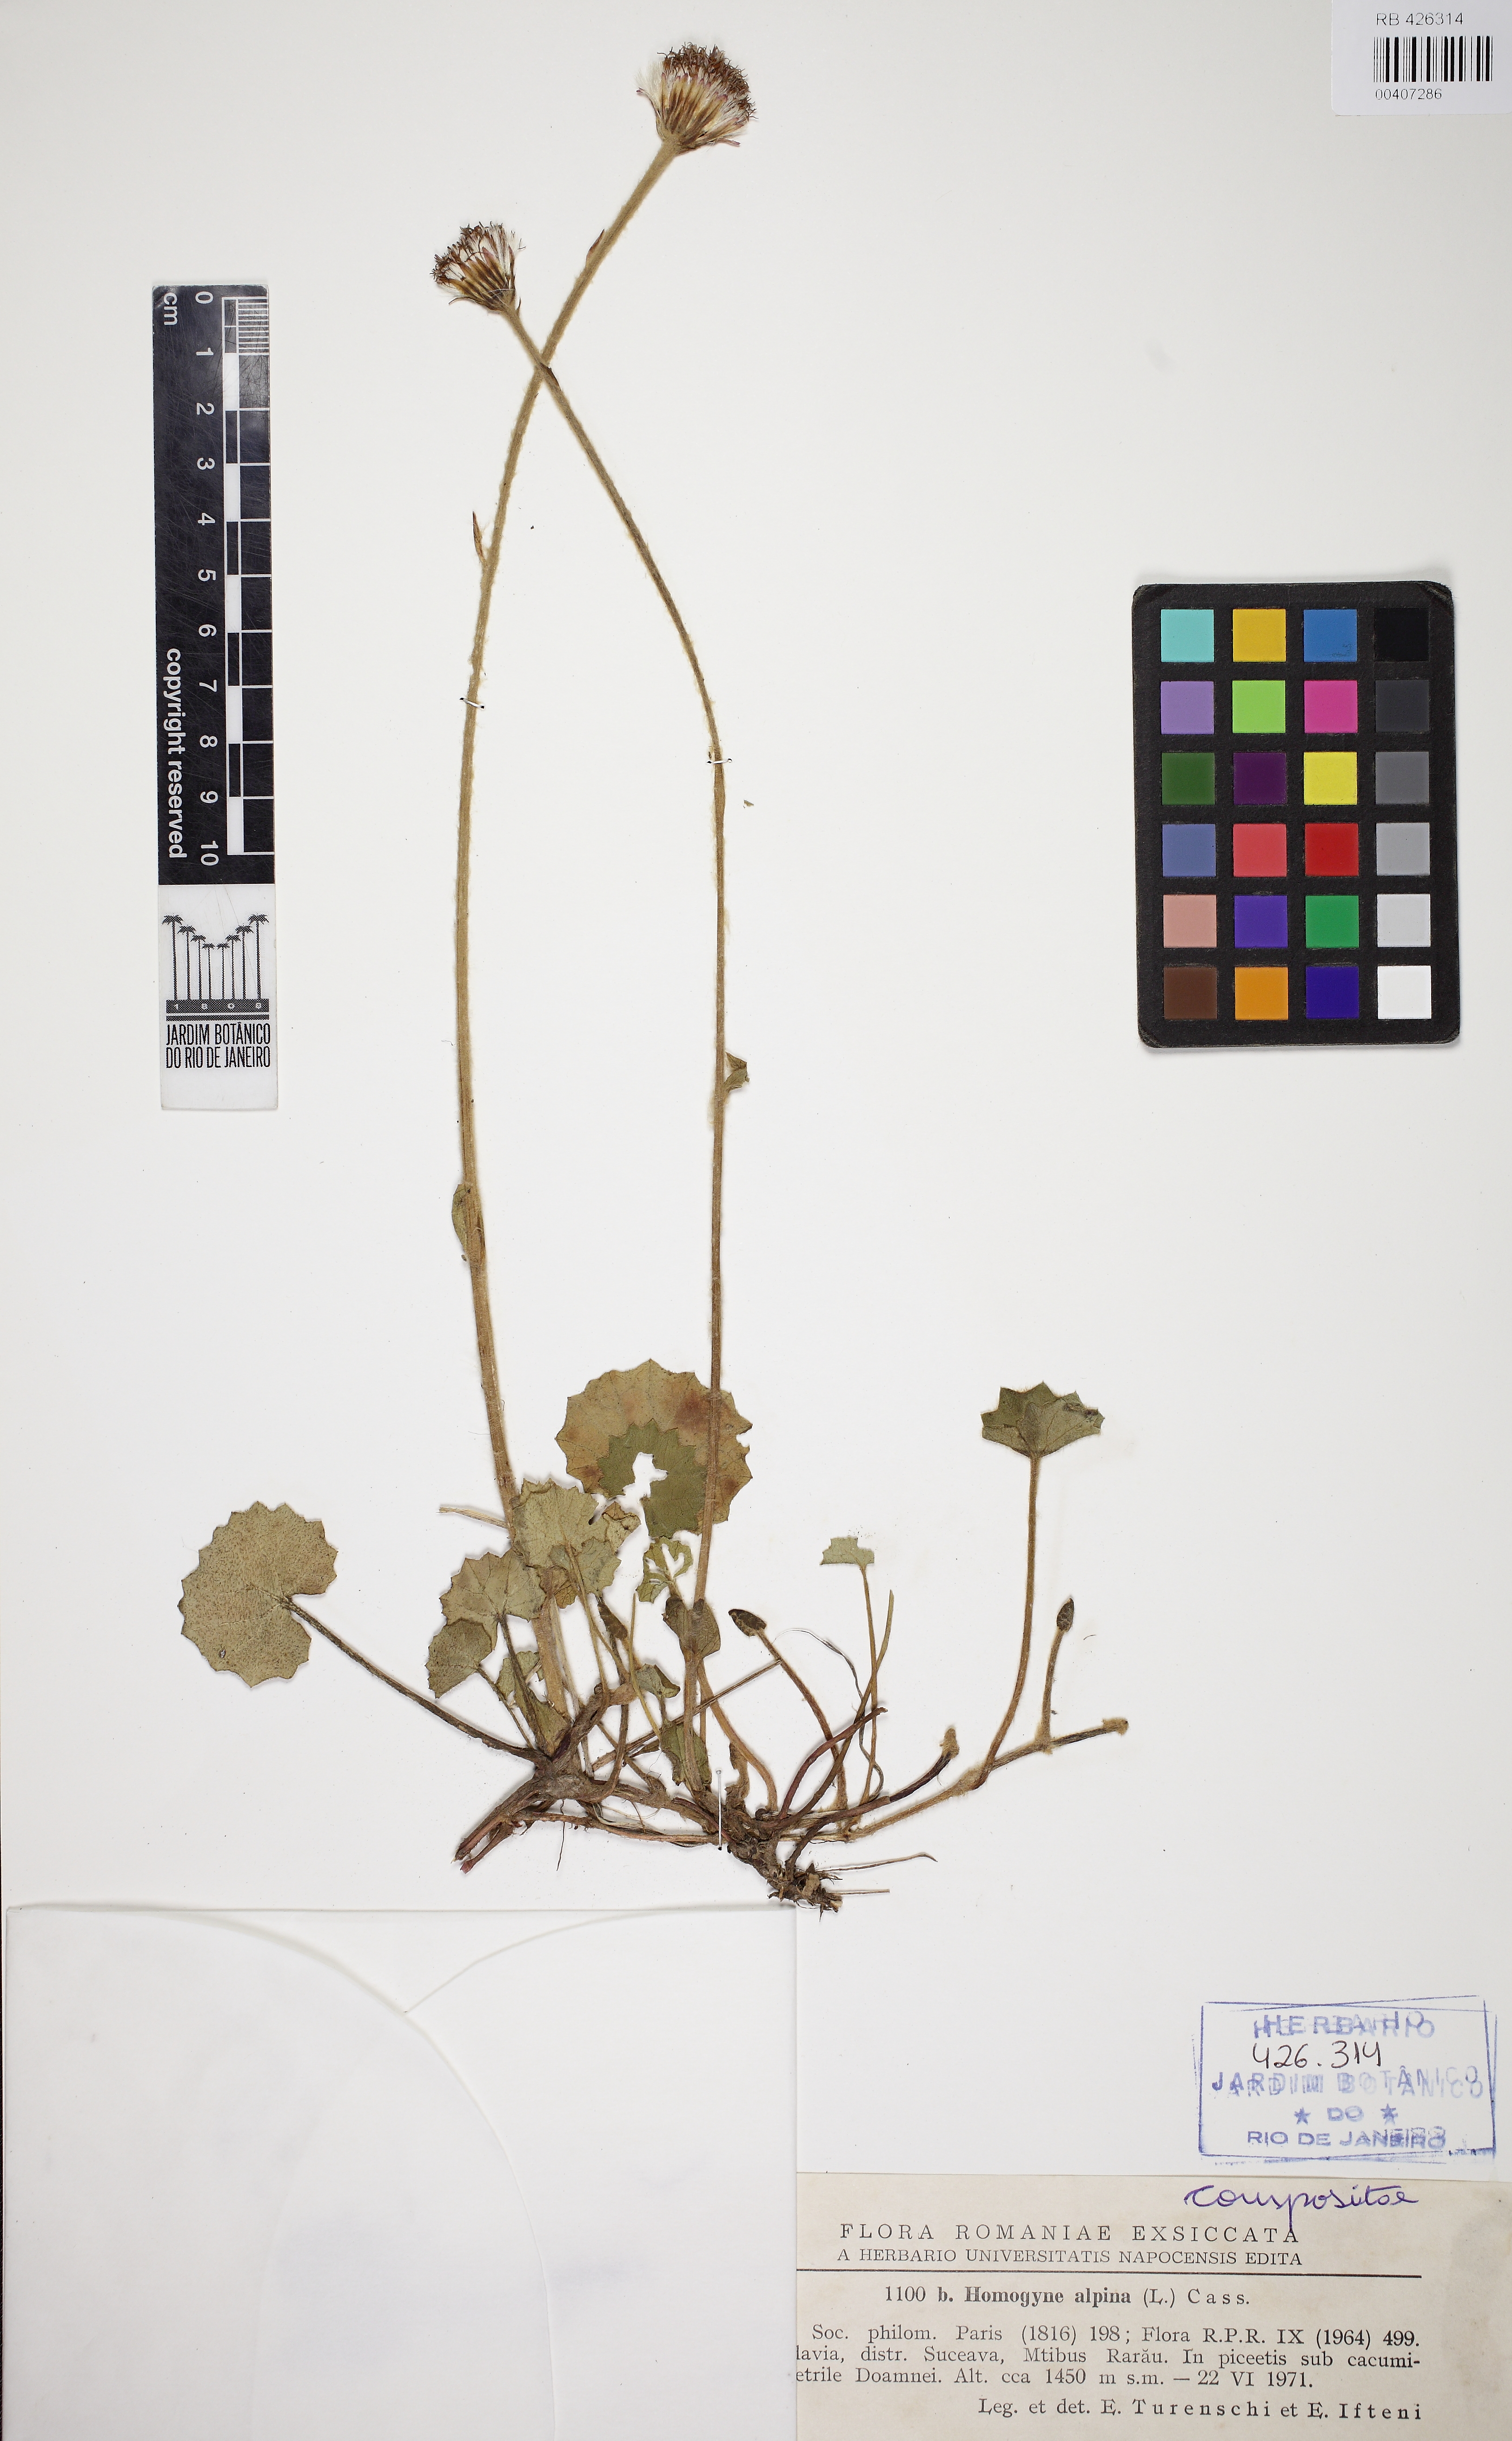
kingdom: Plantae
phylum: Tracheophyta
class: Magnoliopsida
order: Asterales
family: Asteraceae
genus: Homogyne
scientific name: Homogyne alpina
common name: Purple colt's-foot
